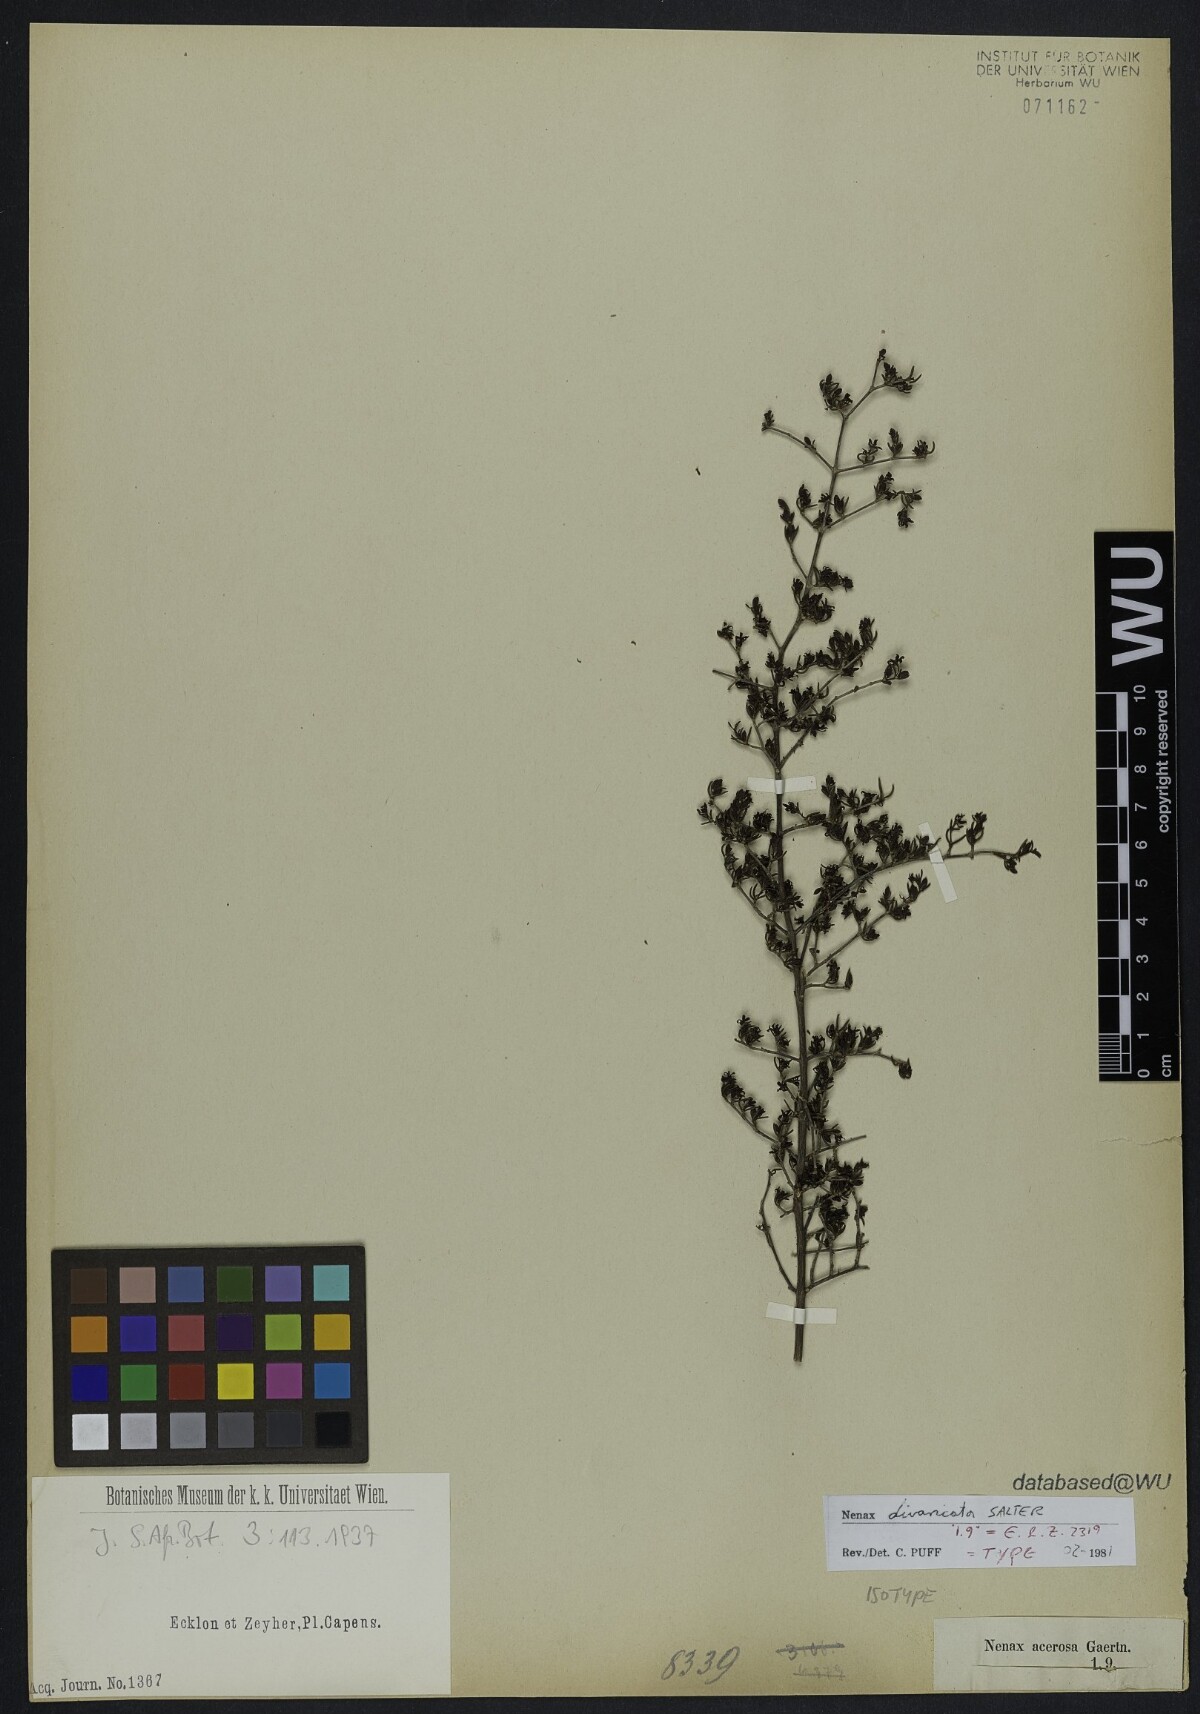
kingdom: Plantae
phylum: Tracheophyta
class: Magnoliopsida
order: Gentianales
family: Rubiaceae
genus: Nenax
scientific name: Nenax divaricata
